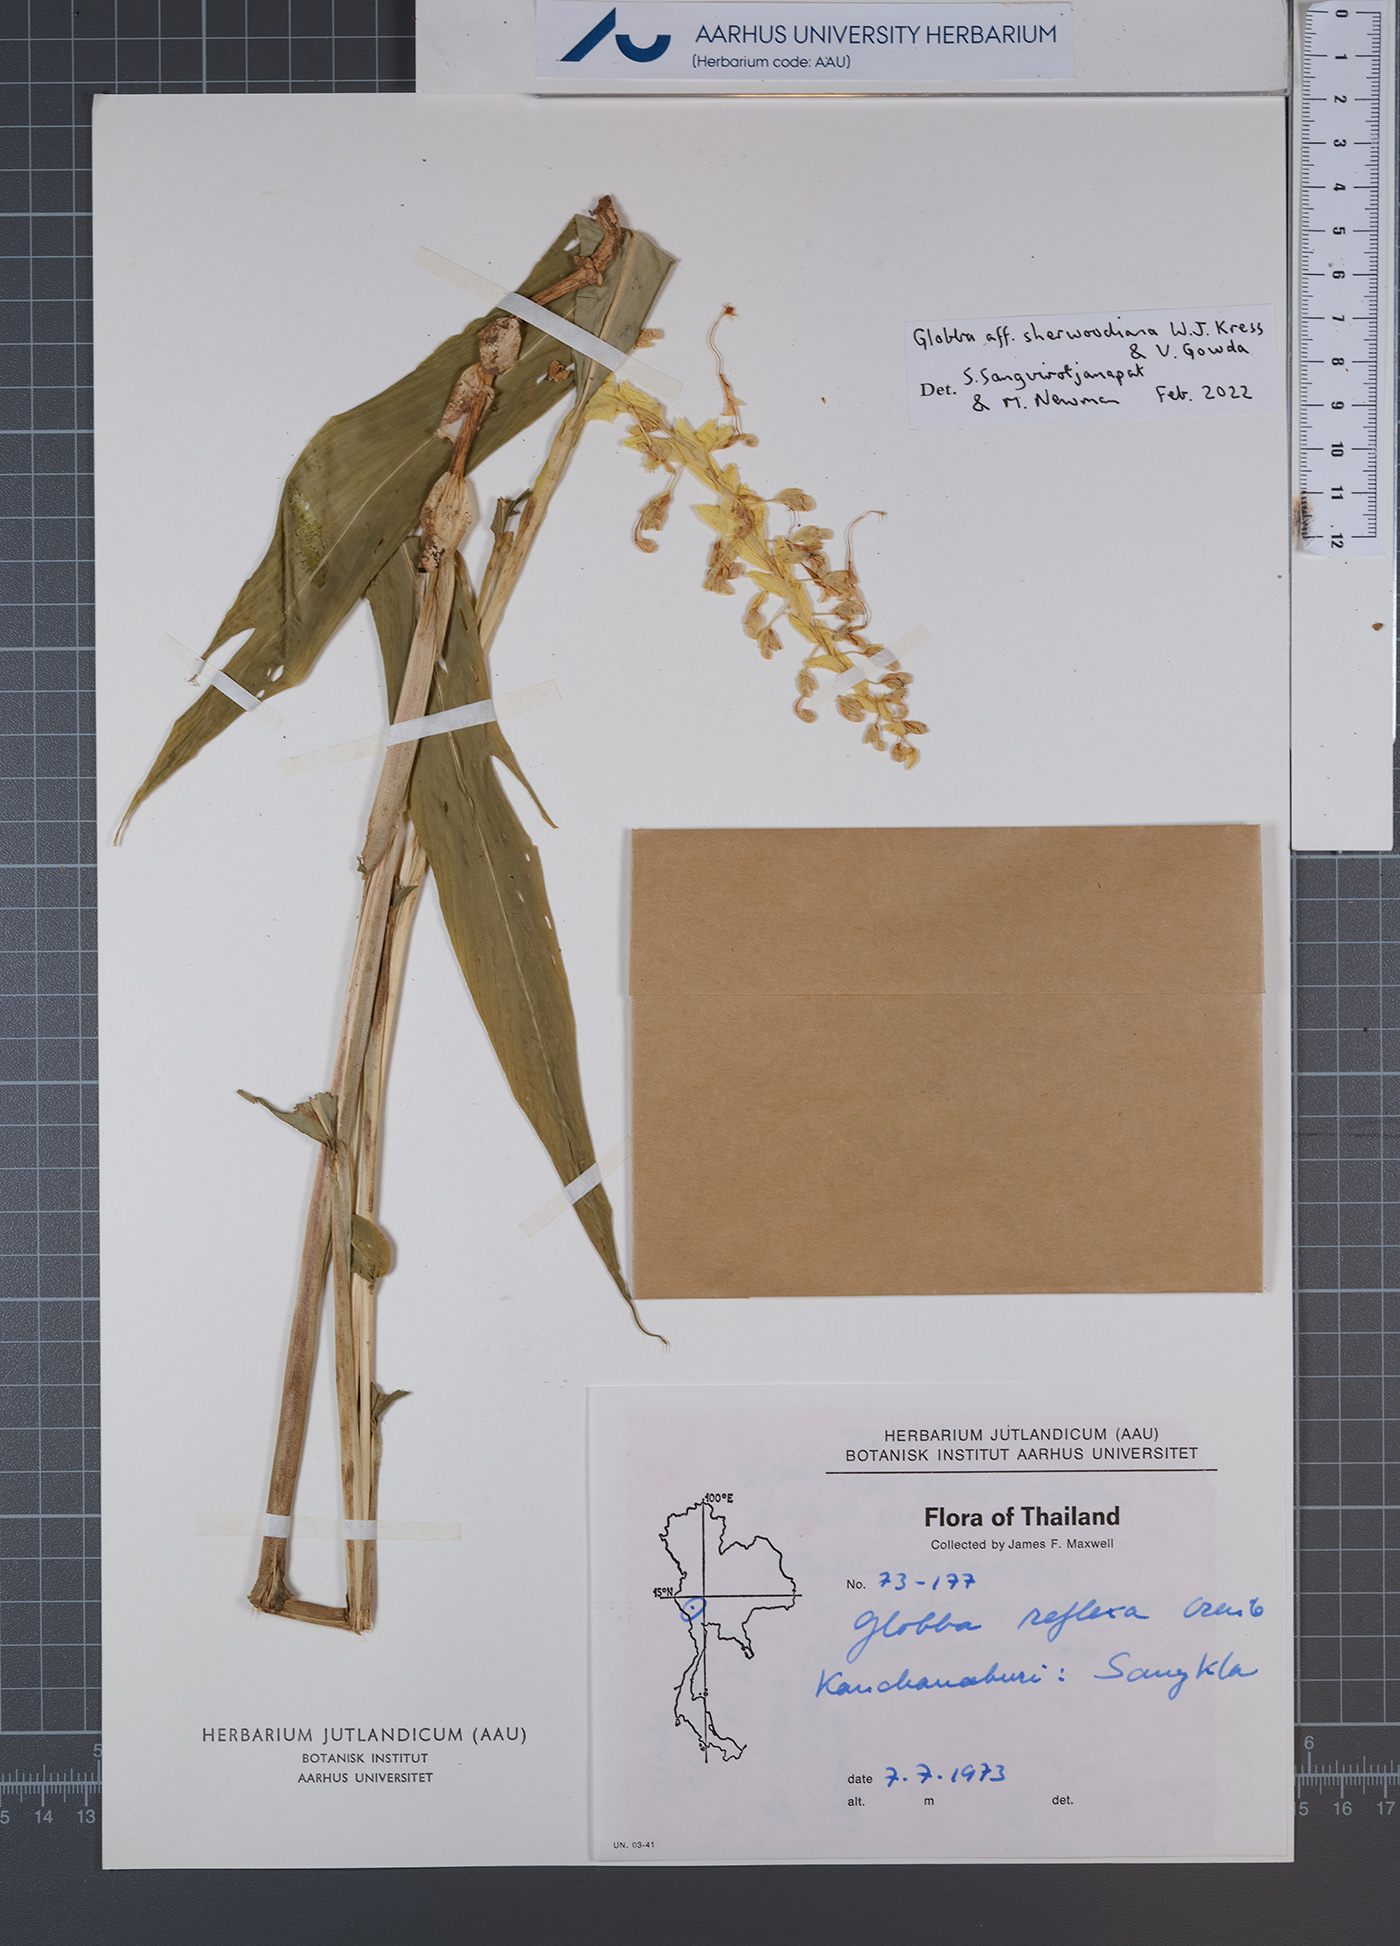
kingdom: Plantae
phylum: Tracheophyta
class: Liliopsida
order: Zingiberales
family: Zingiberaceae
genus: Globba
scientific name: Globba sherwoodiana
